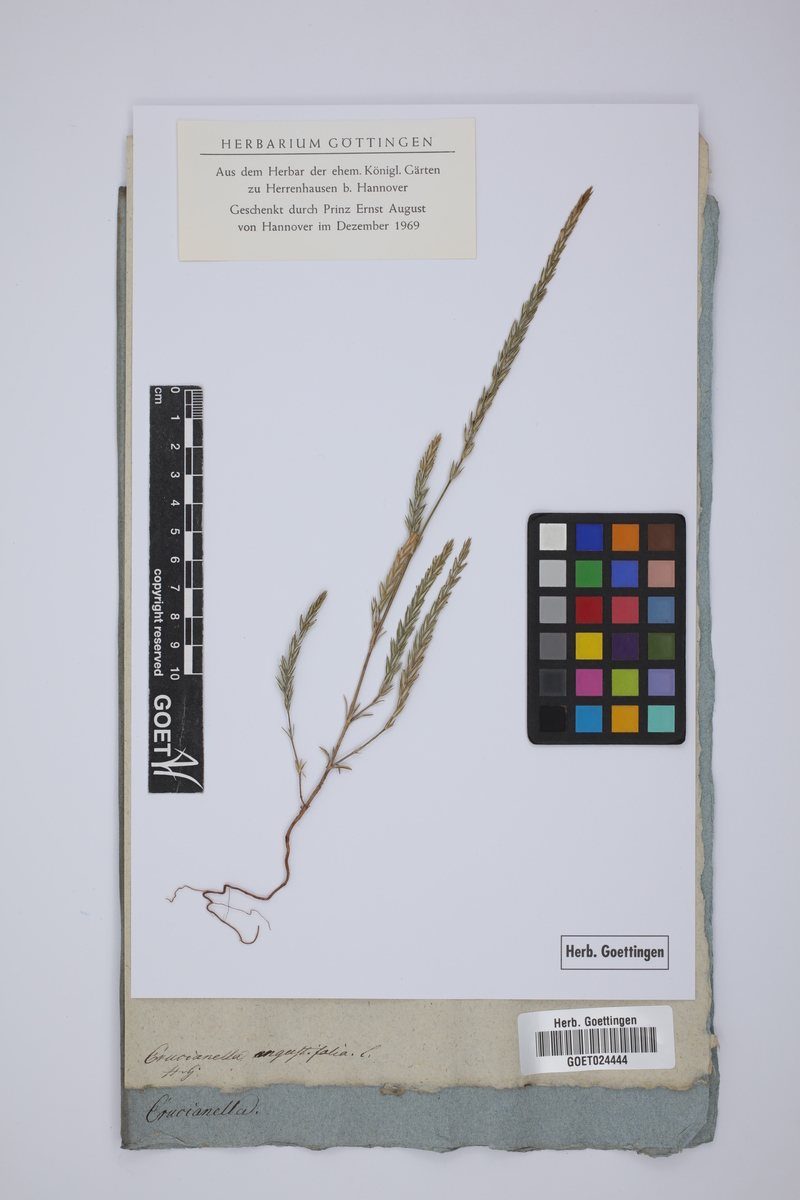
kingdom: Plantae
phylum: Tracheophyta
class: Magnoliopsida
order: Gentianales
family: Rubiaceae
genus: Crucianella
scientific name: Crucianella angustifolia
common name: Narrowleaf crucianella
